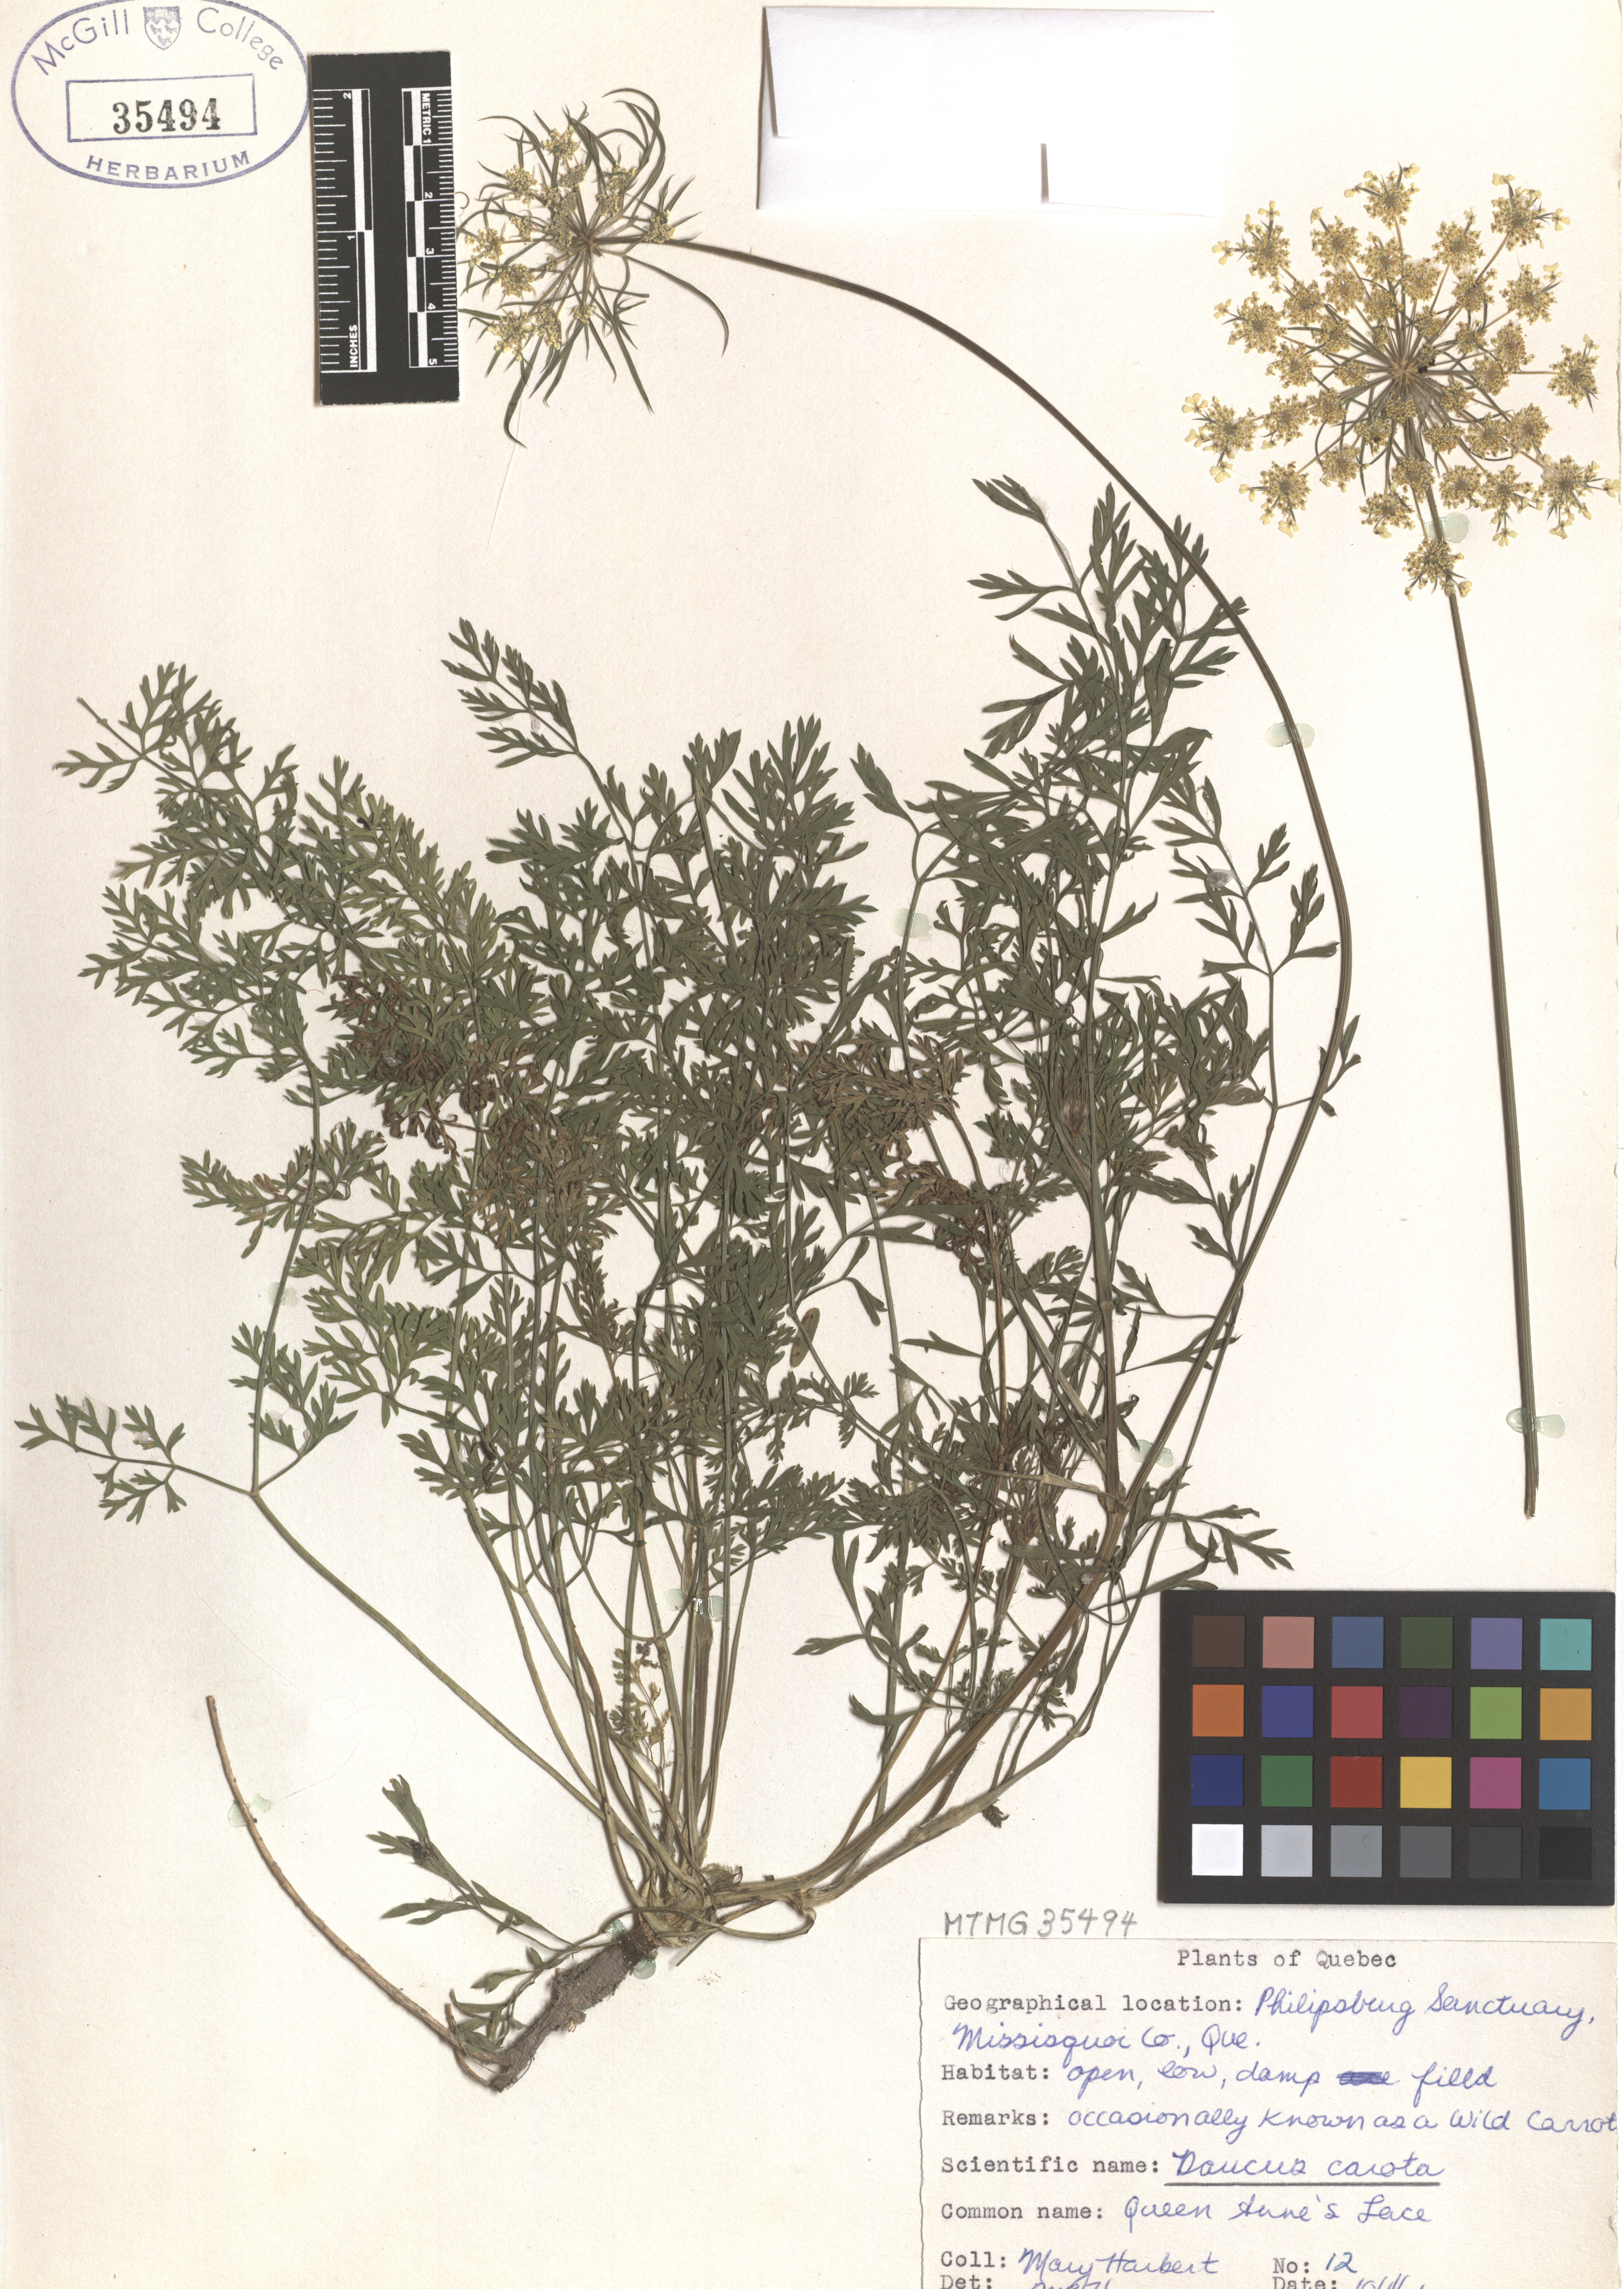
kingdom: Plantae
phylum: Tracheophyta
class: Magnoliopsida
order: Apiales
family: Apiaceae
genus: Daucus
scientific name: Daucus carota
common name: Wild carrot
